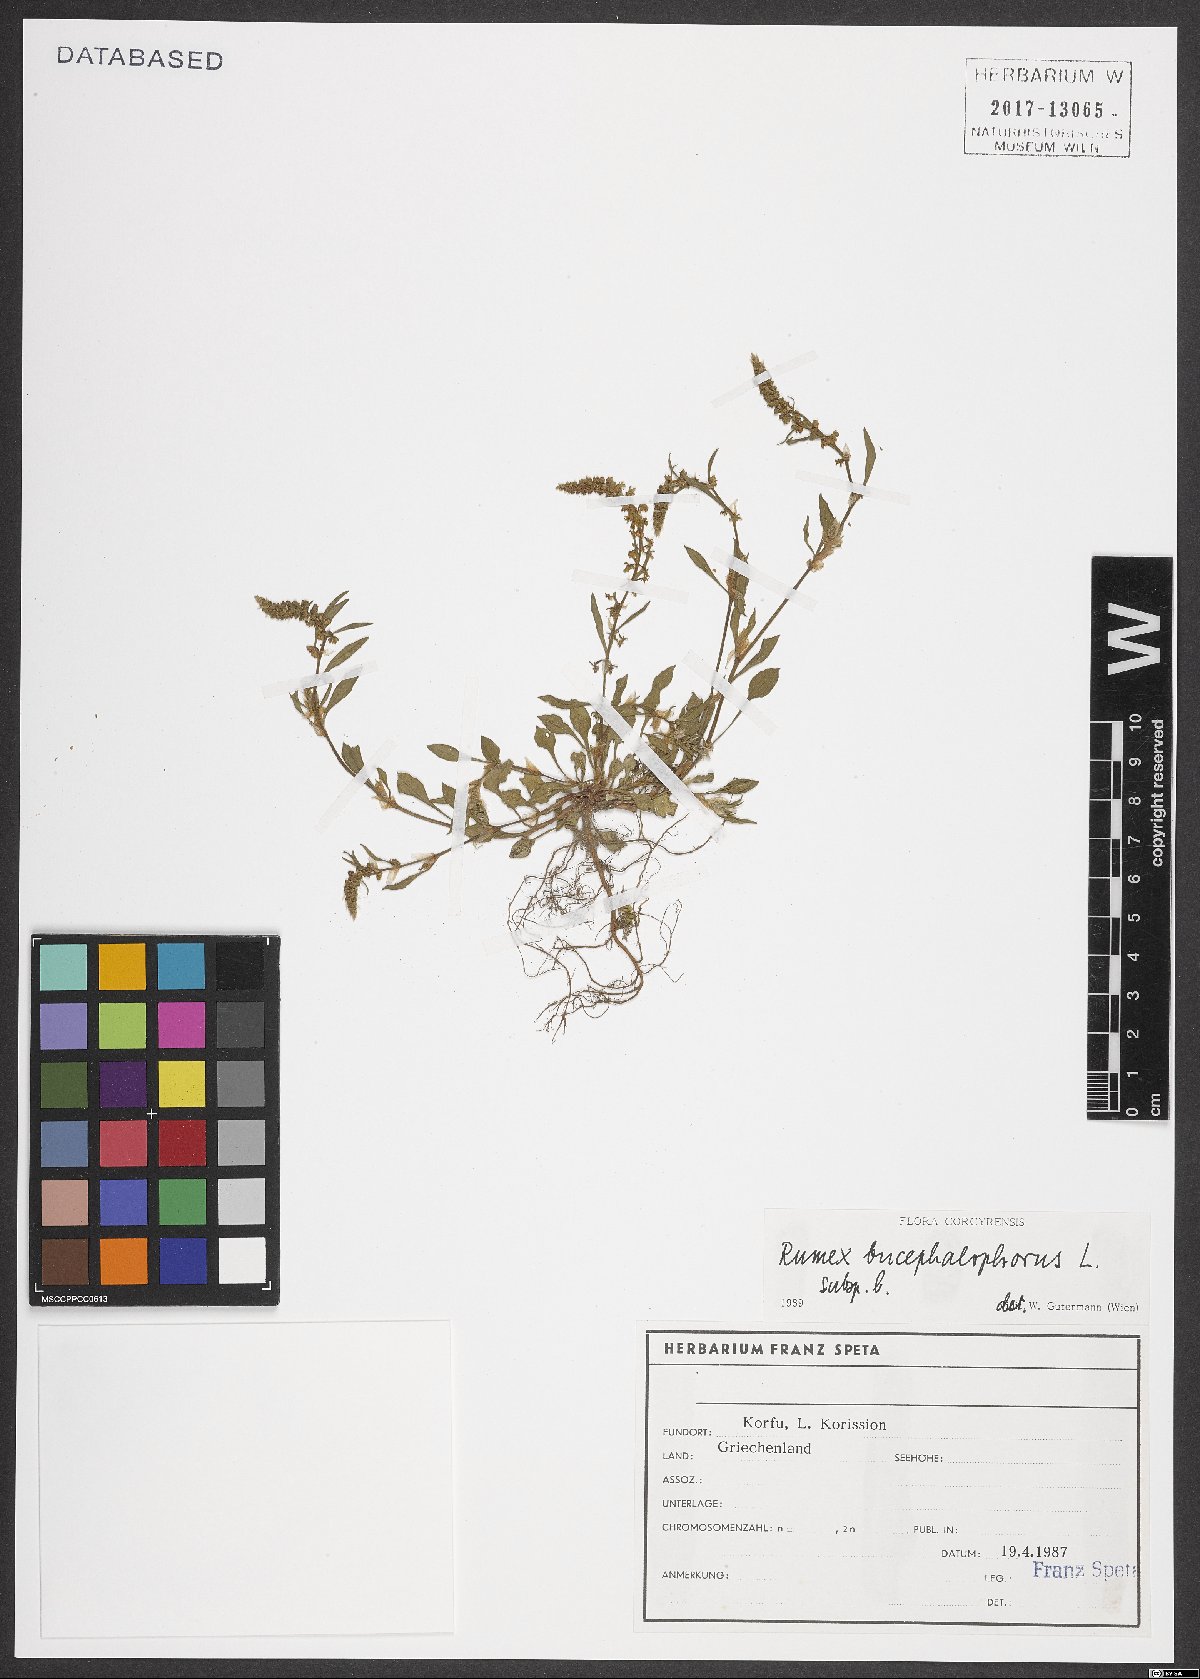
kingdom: Plantae
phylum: Tracheophyta
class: Magnoliopsida
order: Caryophyllales
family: Polygonaceae
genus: Rumex
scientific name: Rumex bucephalophorus
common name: Red dock
